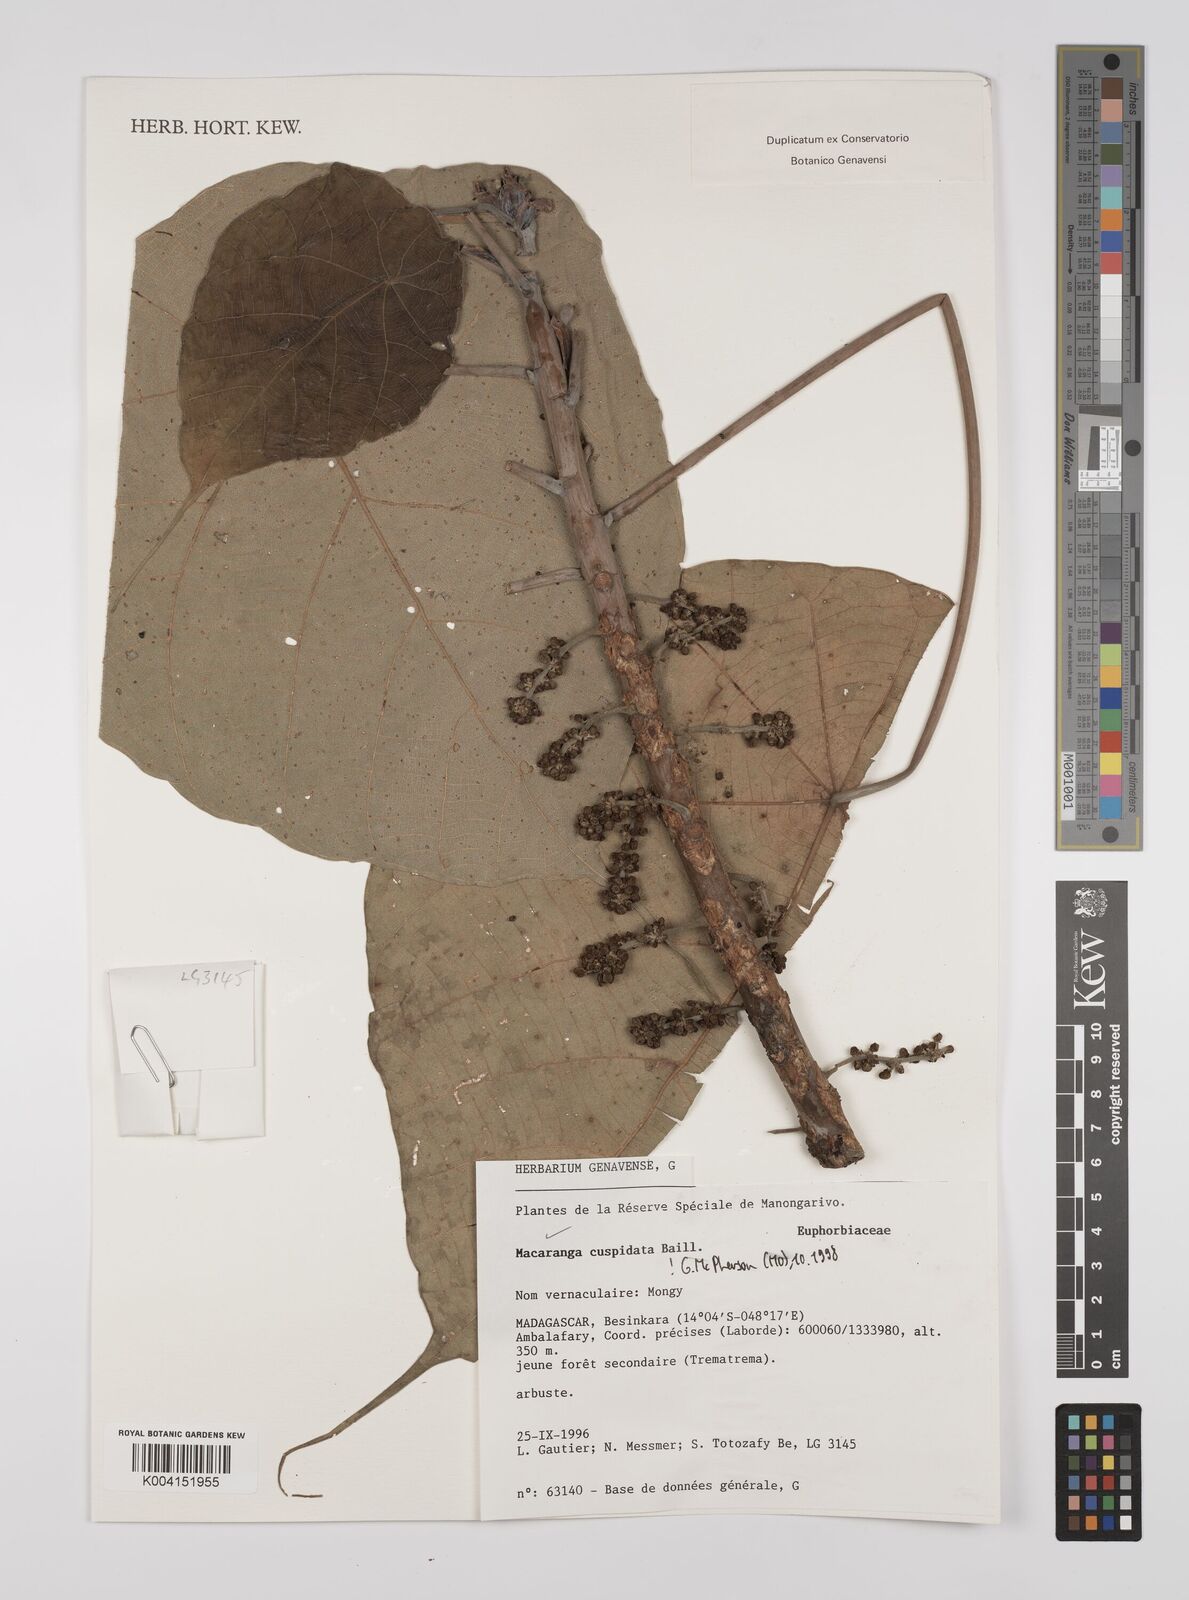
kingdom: Plantae
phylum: Tracheophyta
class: Magnoliopsida
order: Malpighiales
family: Euphorbiaceae
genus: Macaranga
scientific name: Macaranga cuspidata
